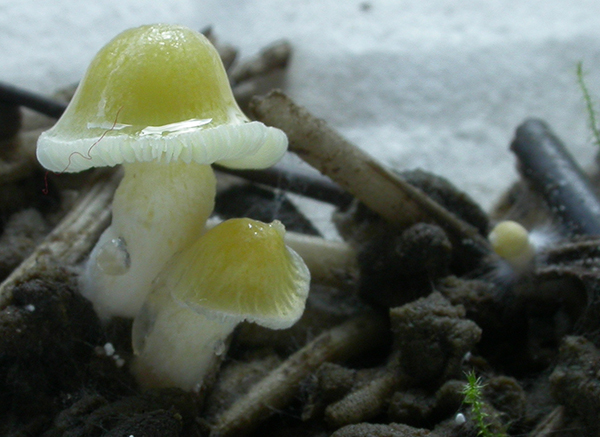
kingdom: Fungi
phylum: Basidiomycota
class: Agaricomycetes
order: Agaricales
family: Bolbitiaceae
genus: Bolbitius
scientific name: Bolbitius titubans
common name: almindelig gulhat
